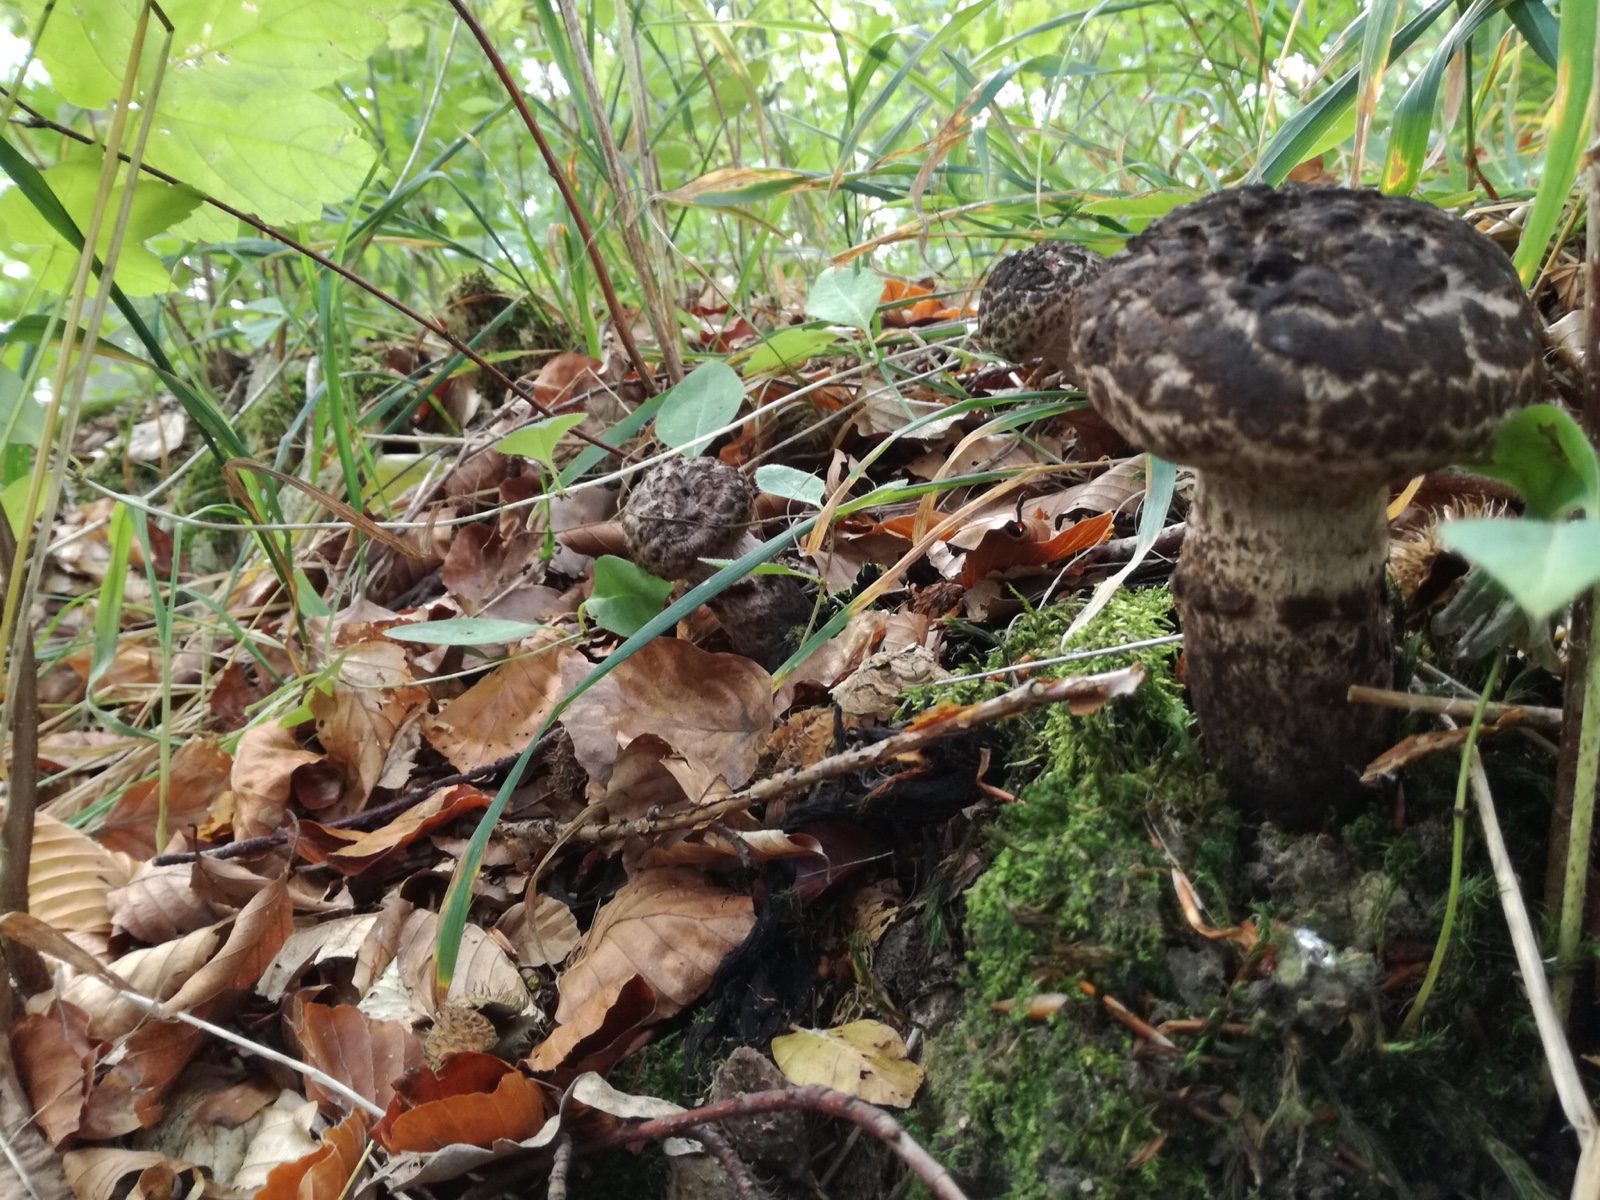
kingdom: Fungi
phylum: Basidiomycota
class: Agaricomycetes
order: Boletales
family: Boletaceae
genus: Strobilomyces
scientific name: Strobilomyces strobilaceus
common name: koglerørhat
